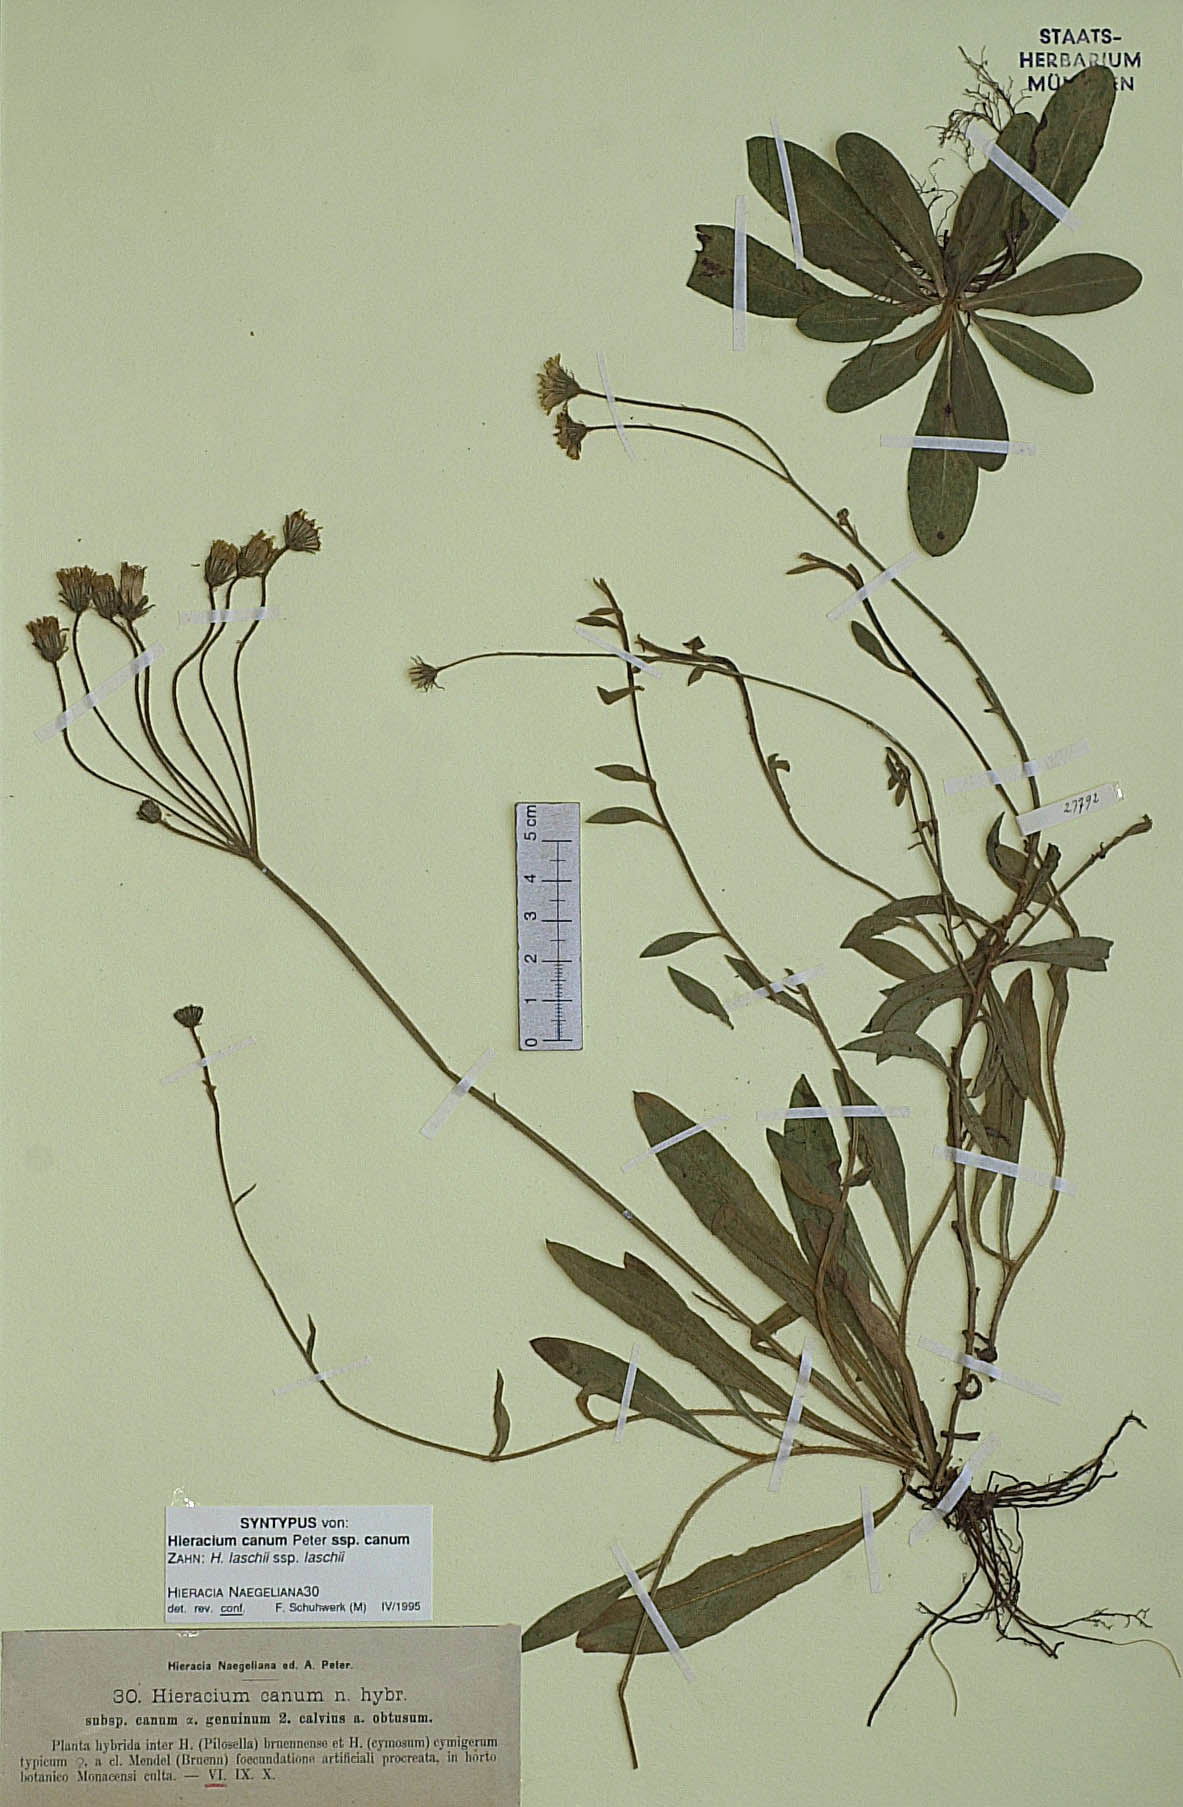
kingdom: Plantae
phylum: Tracheophyta
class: Magnoliopsida
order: Asterales
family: Asteraceae
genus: Pilosella
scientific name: Pilosella cana
